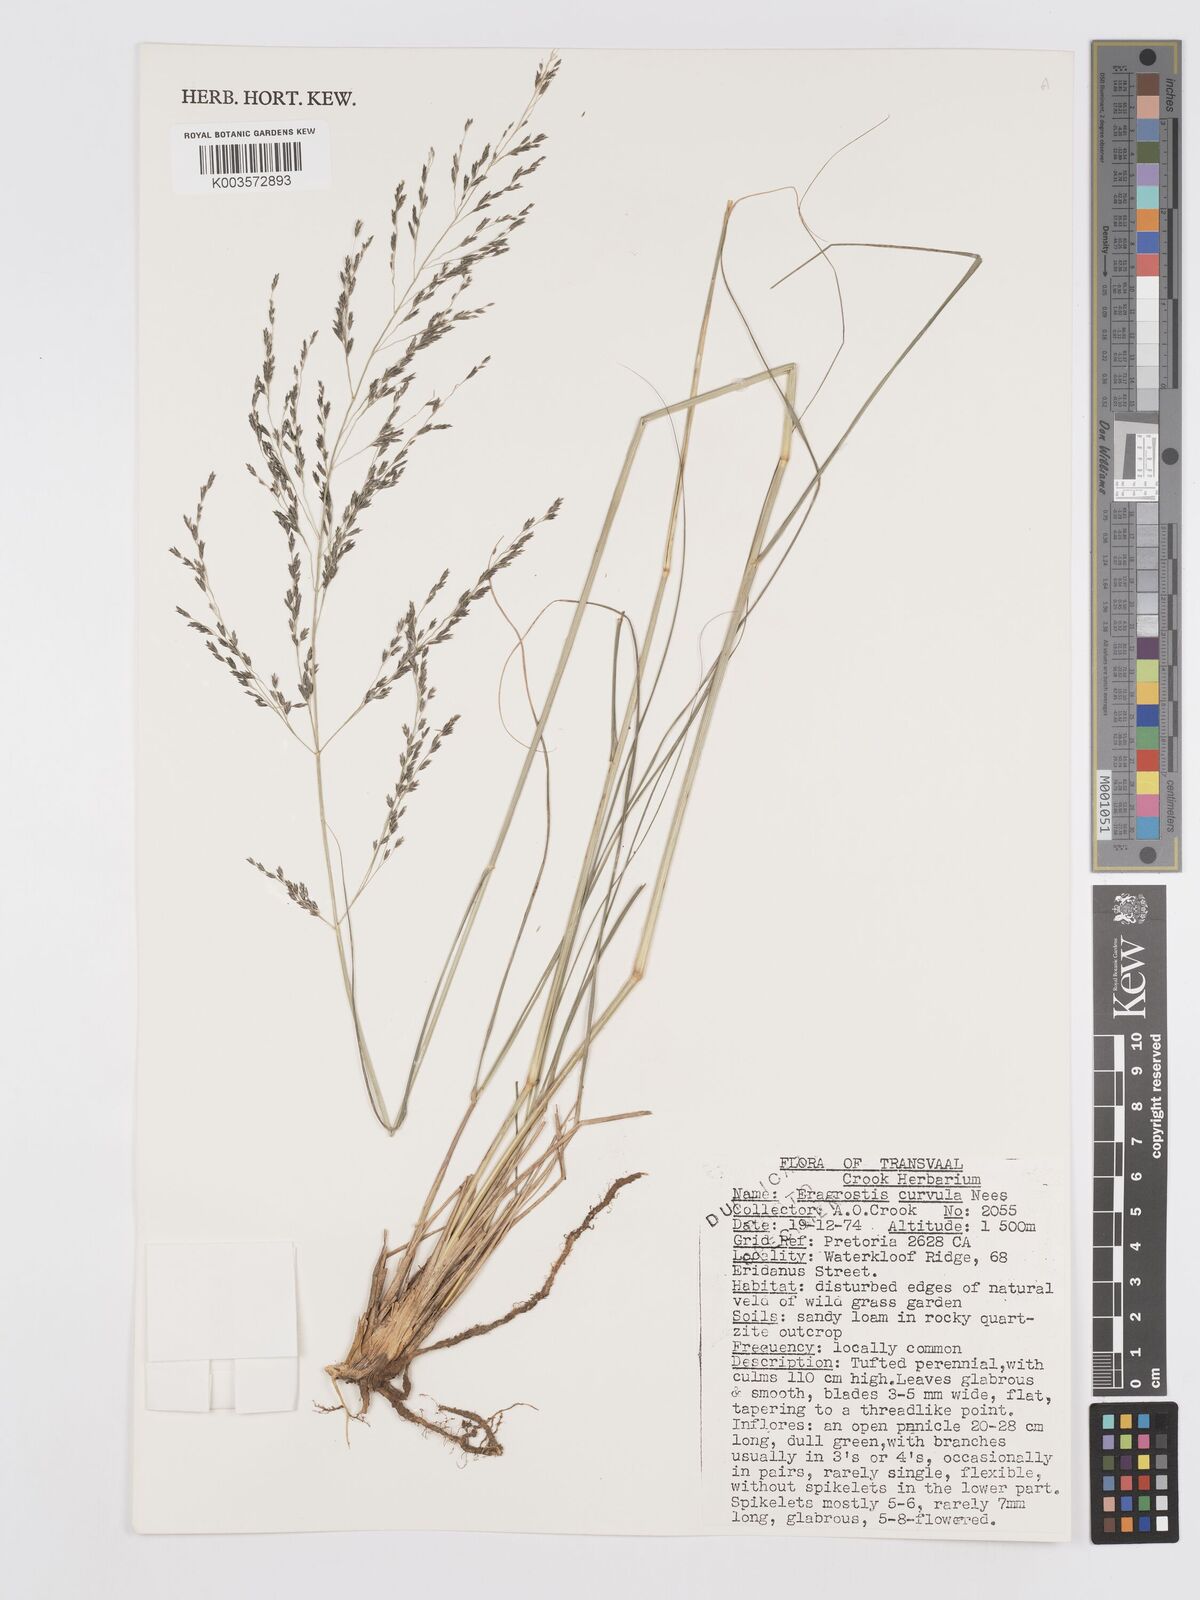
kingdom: Plantae
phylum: Tracheophyta
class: Liliopsida
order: Poales
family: Poaceae
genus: Eragrostis
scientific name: Eragrostis curvula
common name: African love-grass
